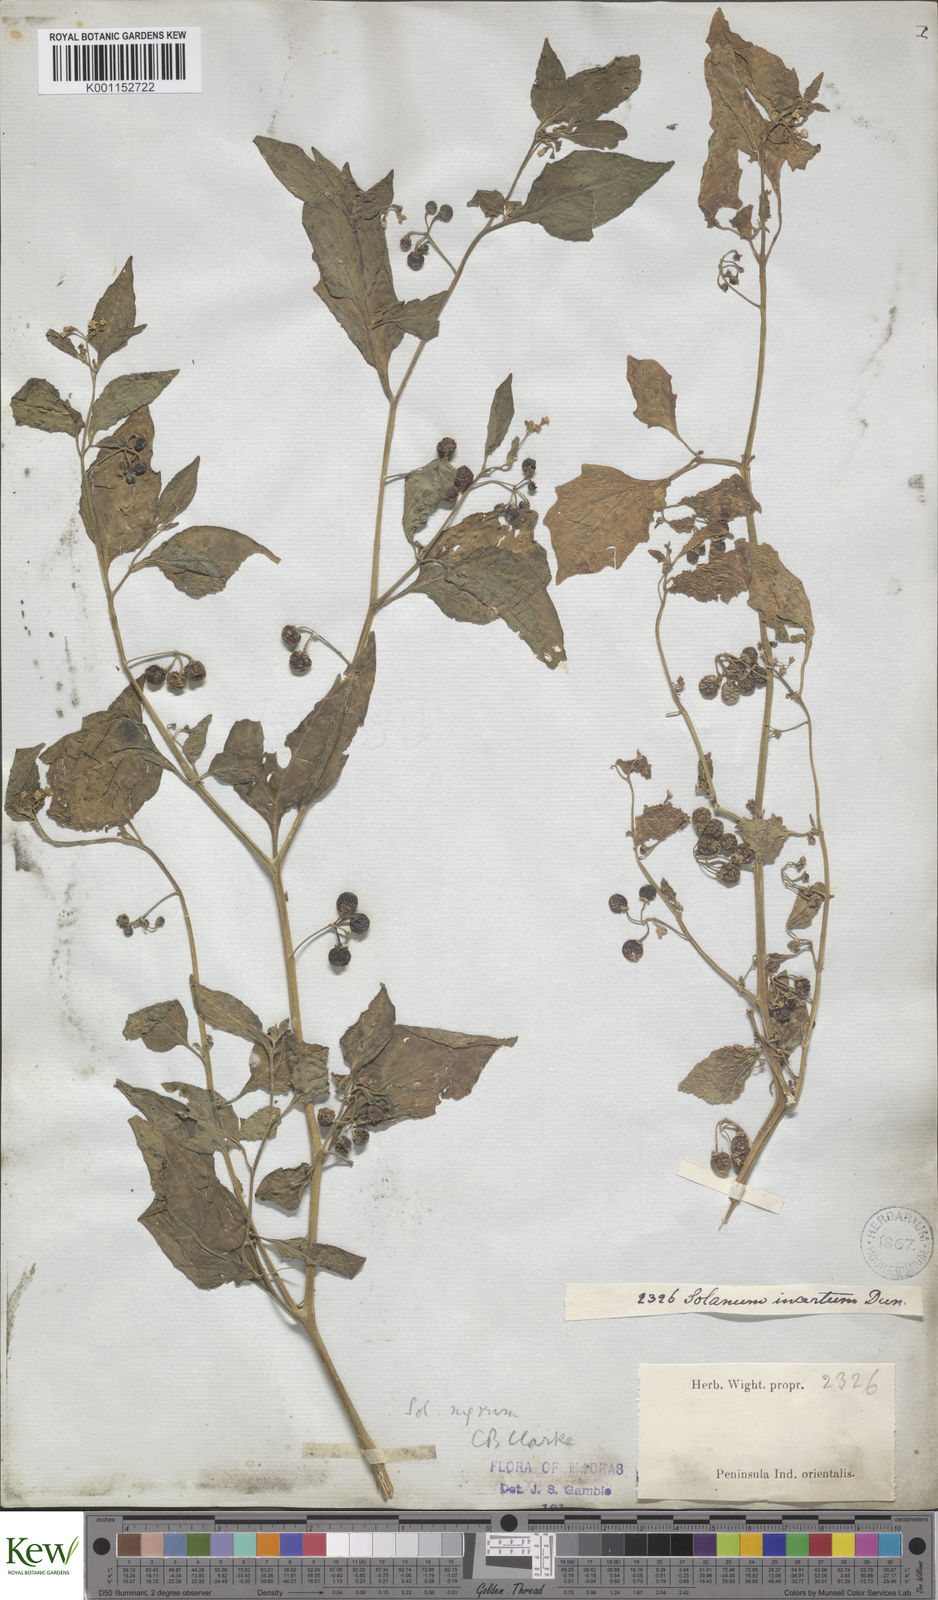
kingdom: Plantae
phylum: Tracheophyta
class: Magnoliopsida
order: Solanales
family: Solanaceae
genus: Solanum
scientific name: Solanum nigrum
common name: Black nightshade
